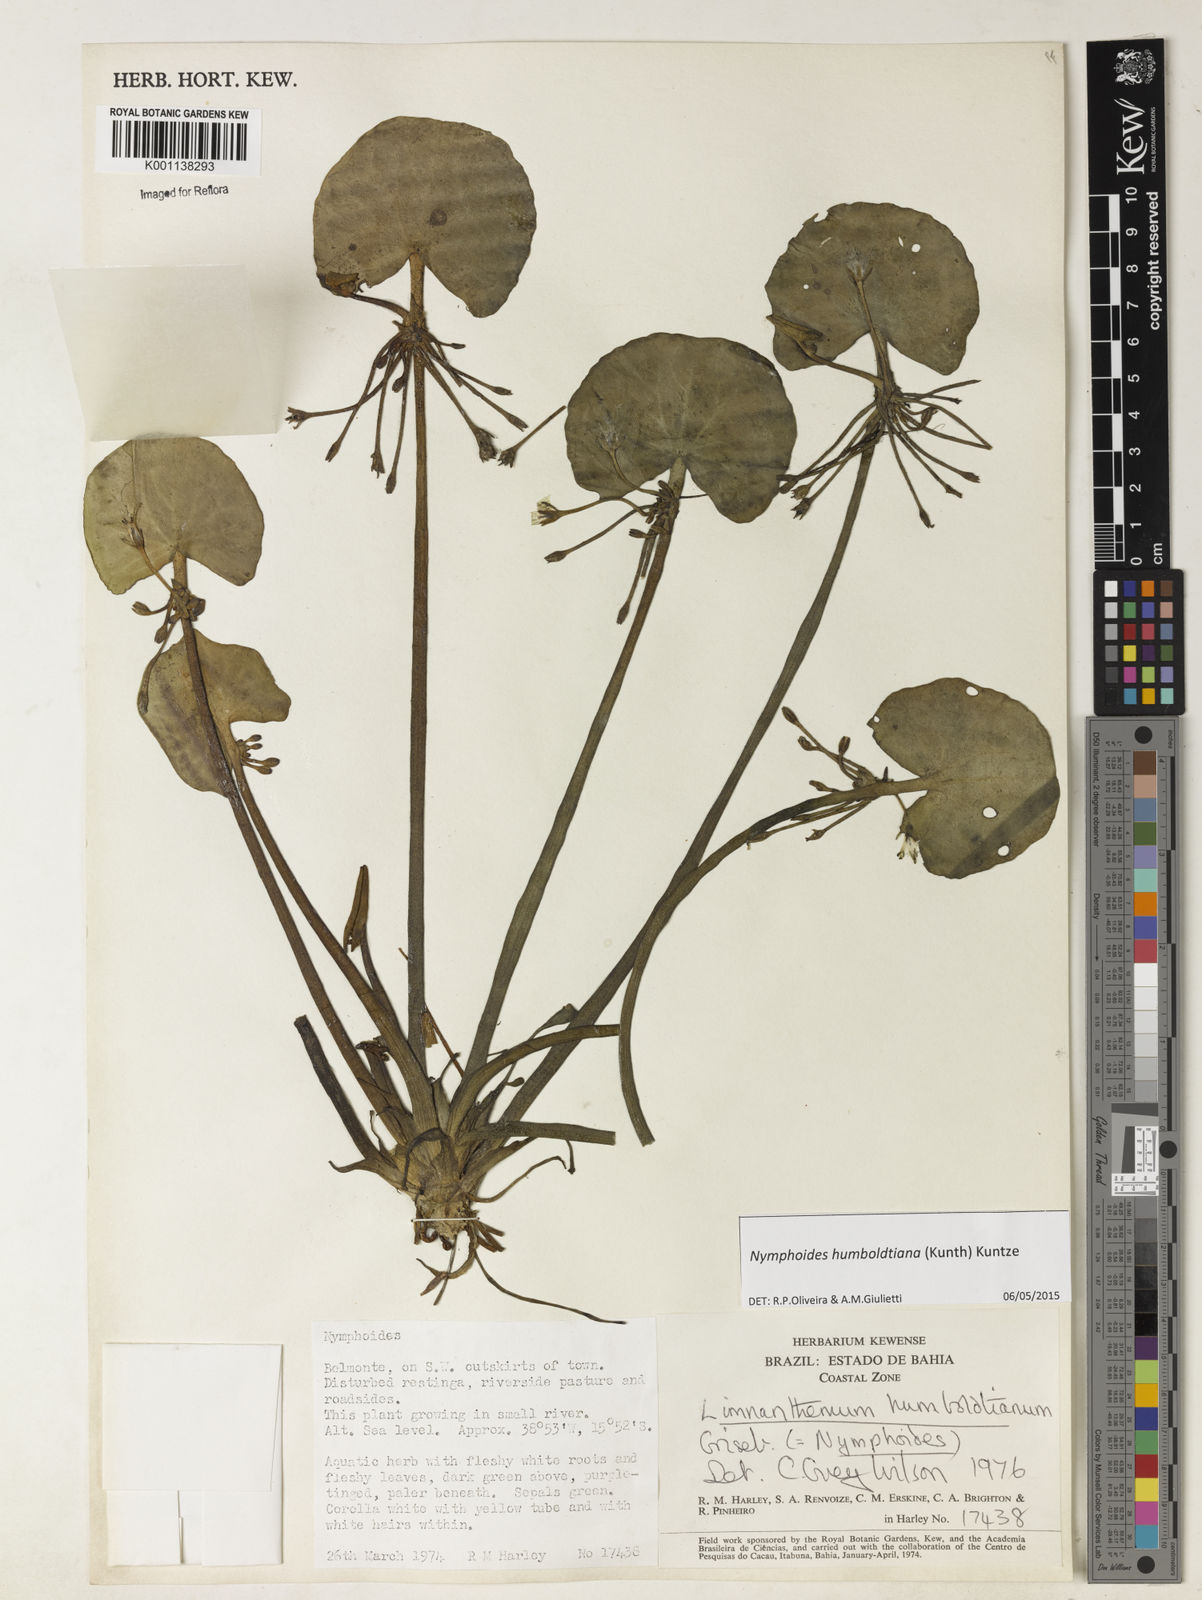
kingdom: Plantae
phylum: Tracheophyta
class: Magnoliopsida
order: Asterales
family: Menyanthaceae
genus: Nymphoides
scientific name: Nymphoides
